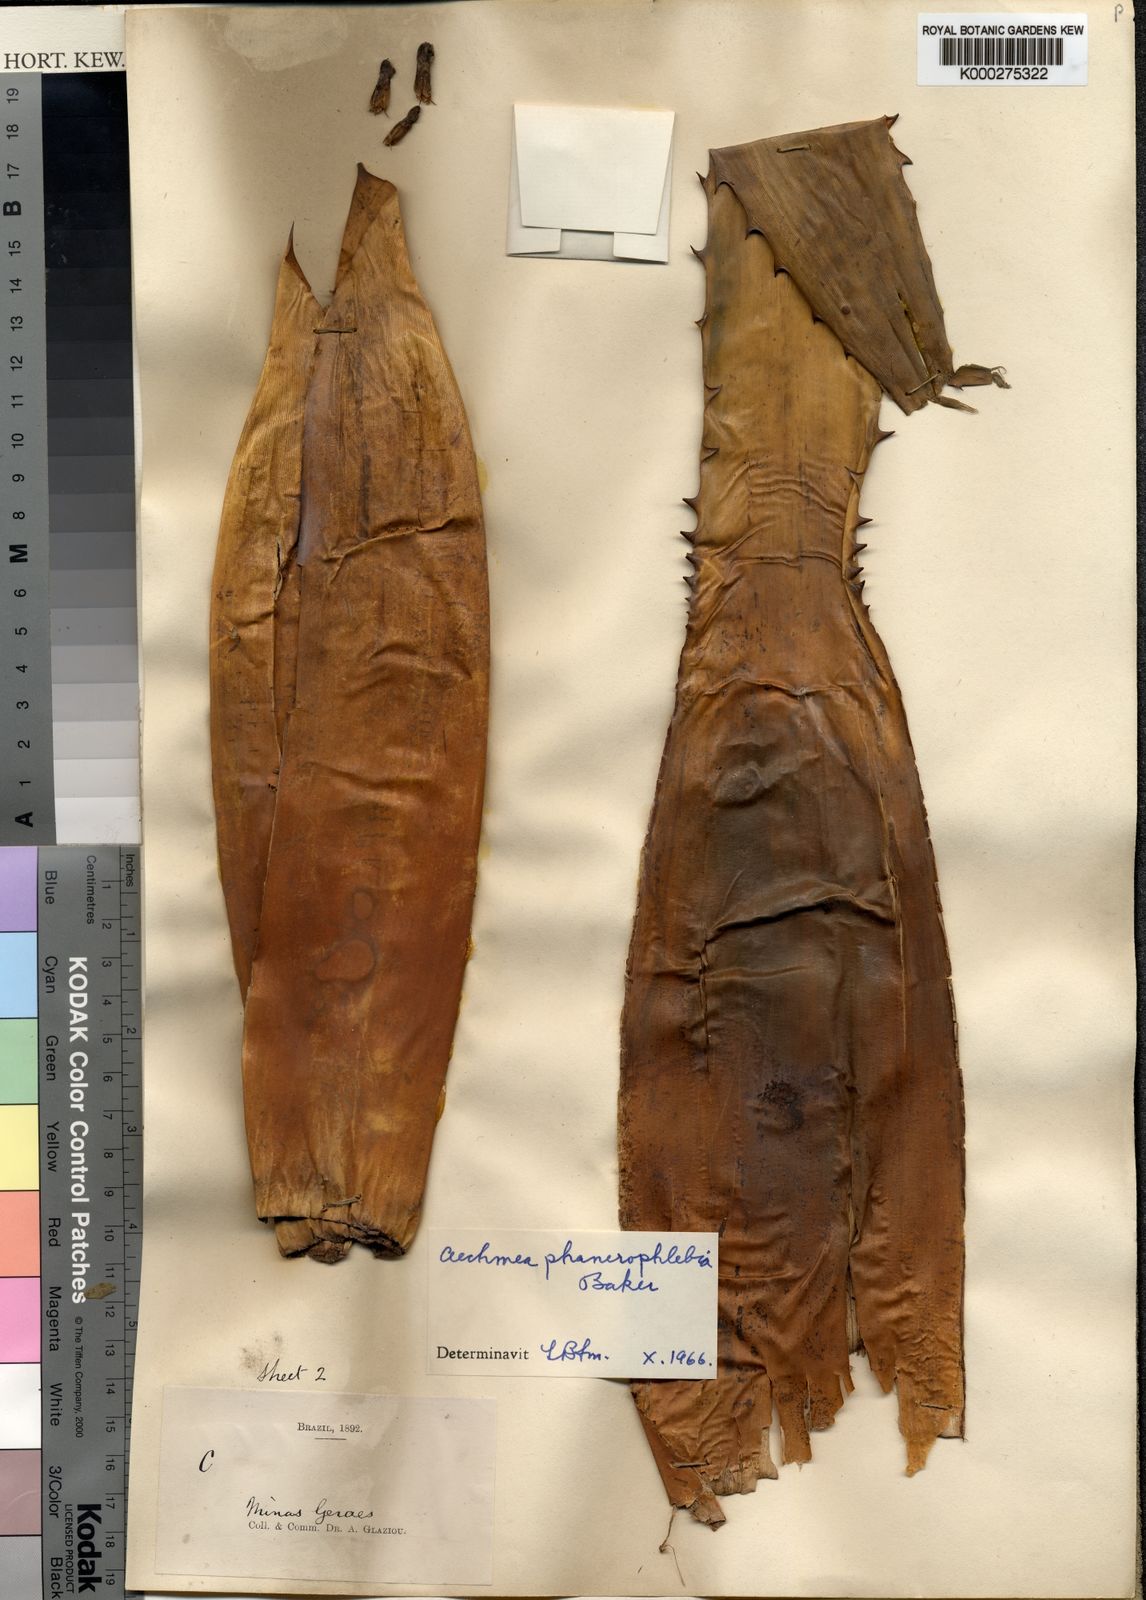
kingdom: Plantae
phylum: Tracheophyta
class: Liliopsida
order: Poales
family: Bromeliaceae
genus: Aechmea
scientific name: Aechmea phanerophlebia
